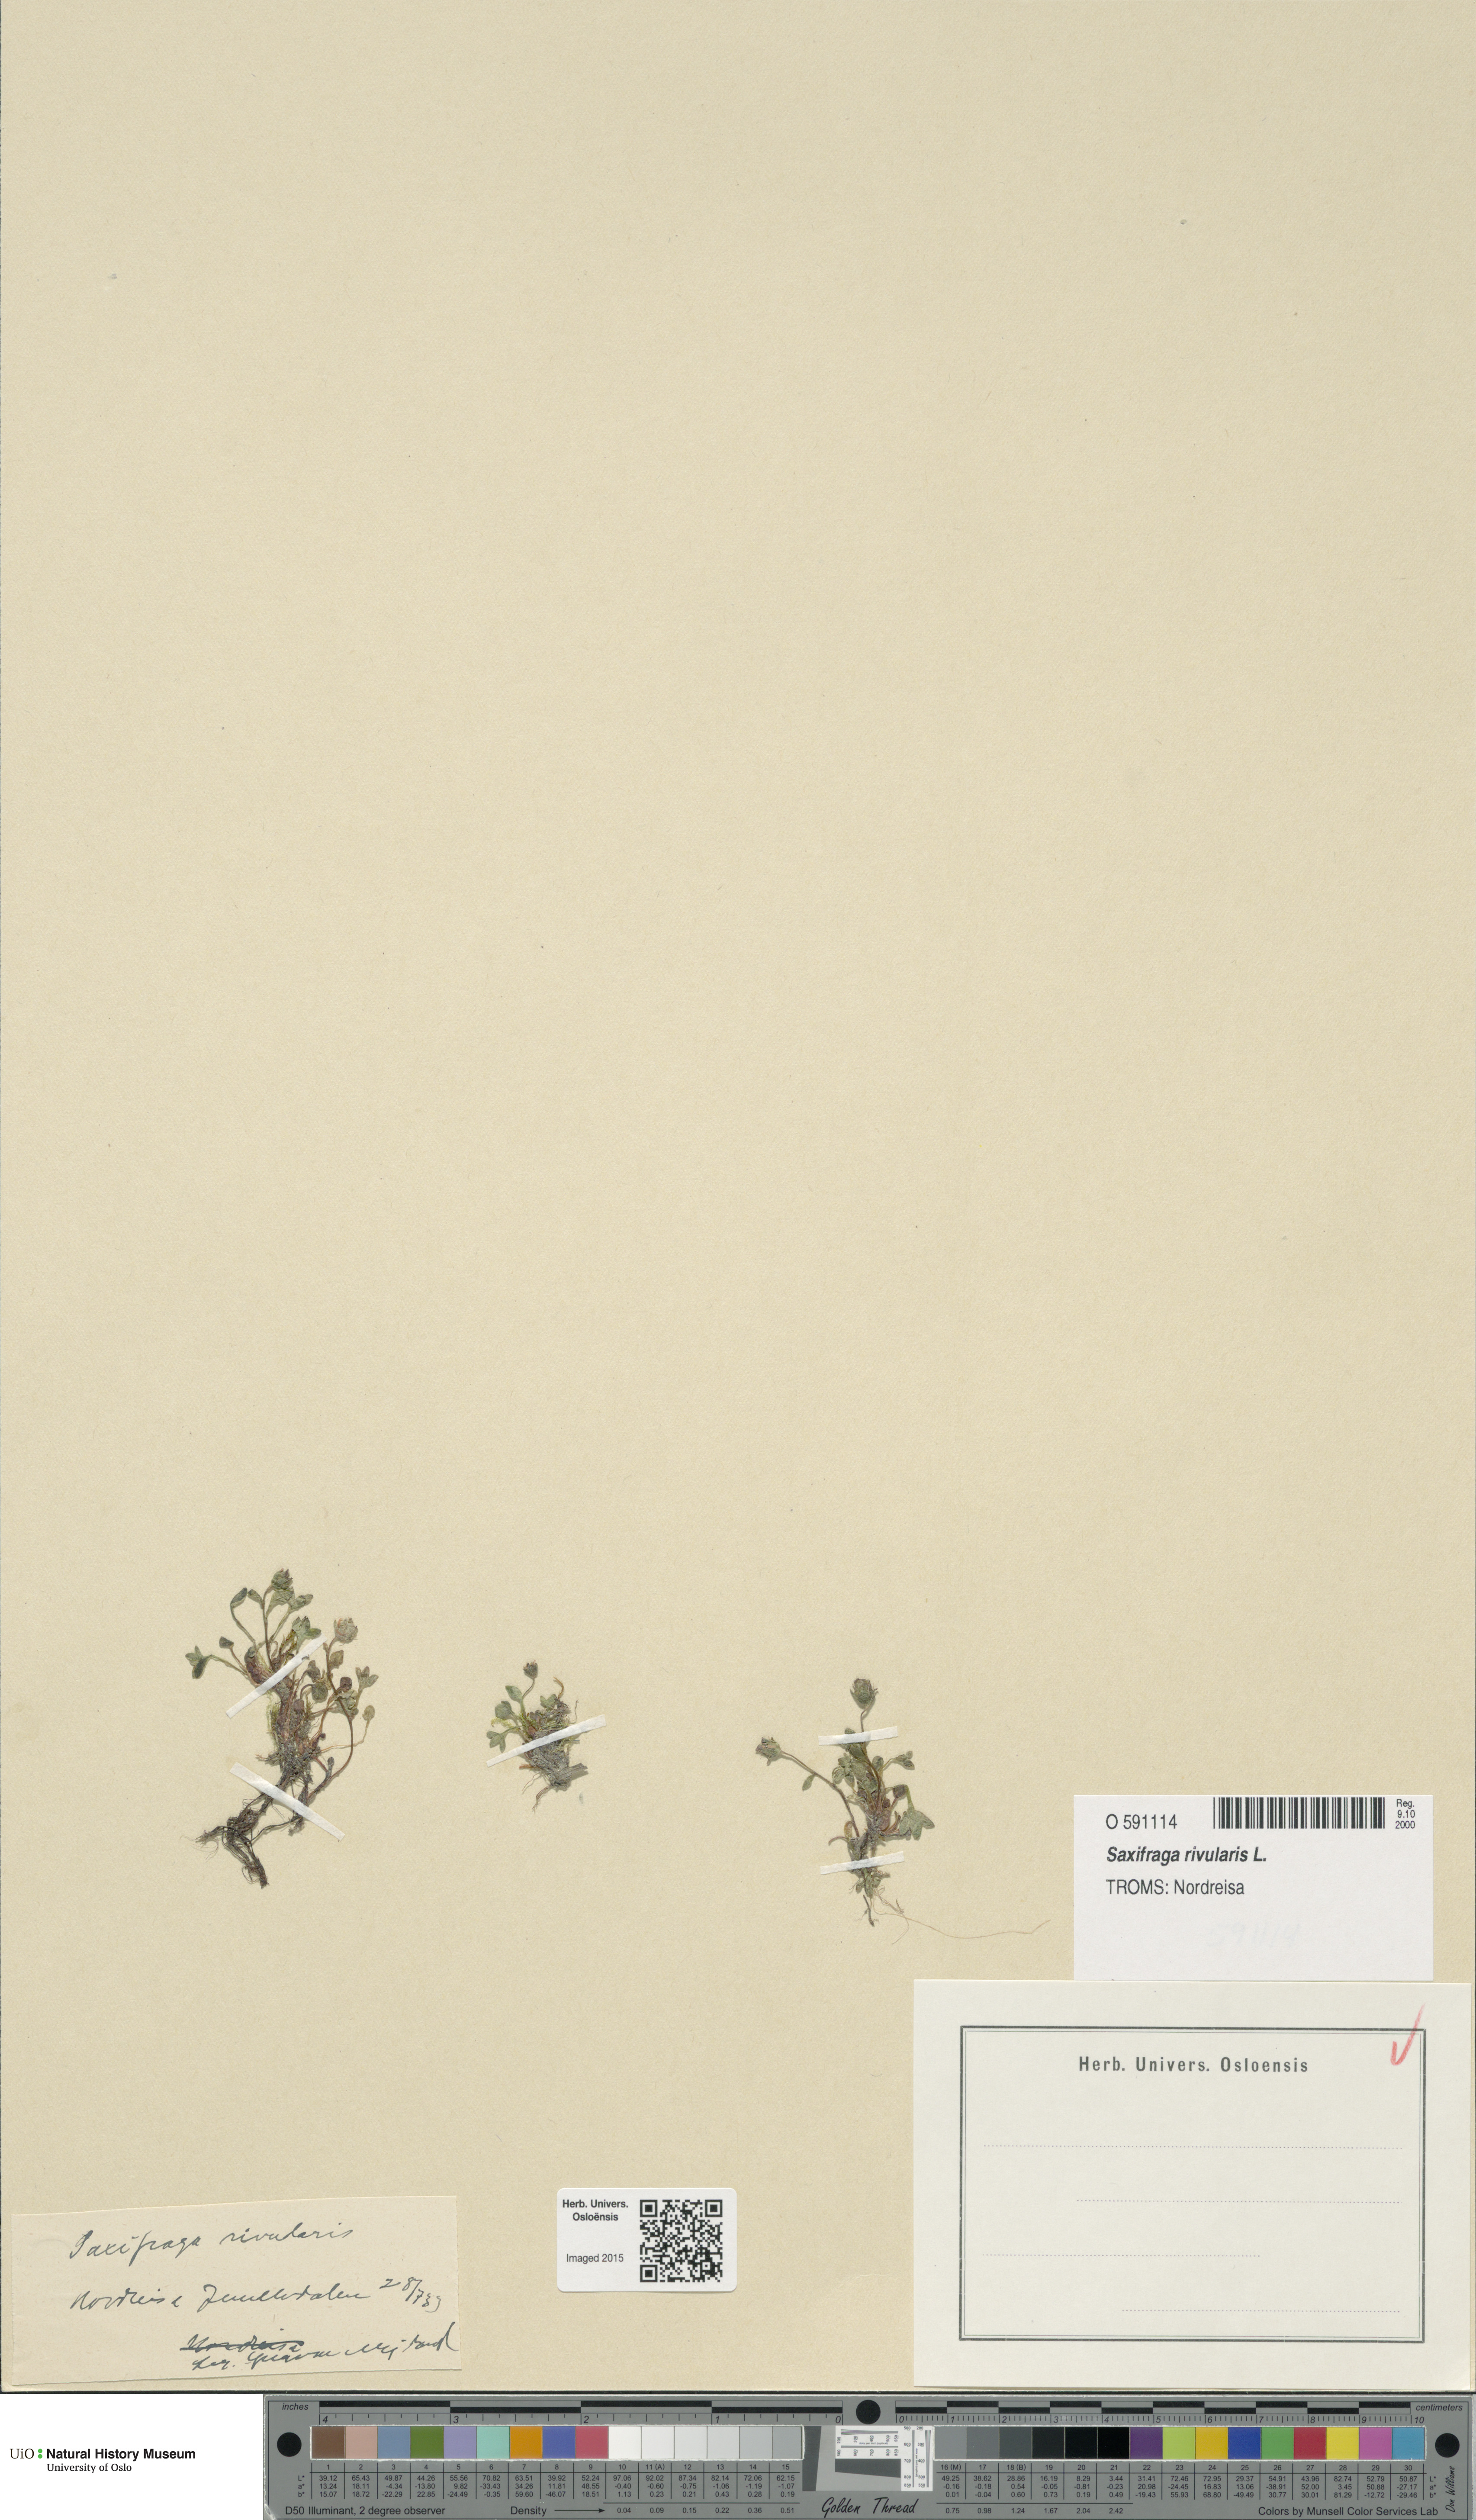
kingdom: Plantae
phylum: Tracheophyta
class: Magnoliopsida
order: Saxifragales
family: Saxifragaceae
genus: Saxifraga
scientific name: Saxifraga rivularis
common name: Highland saxifrage
